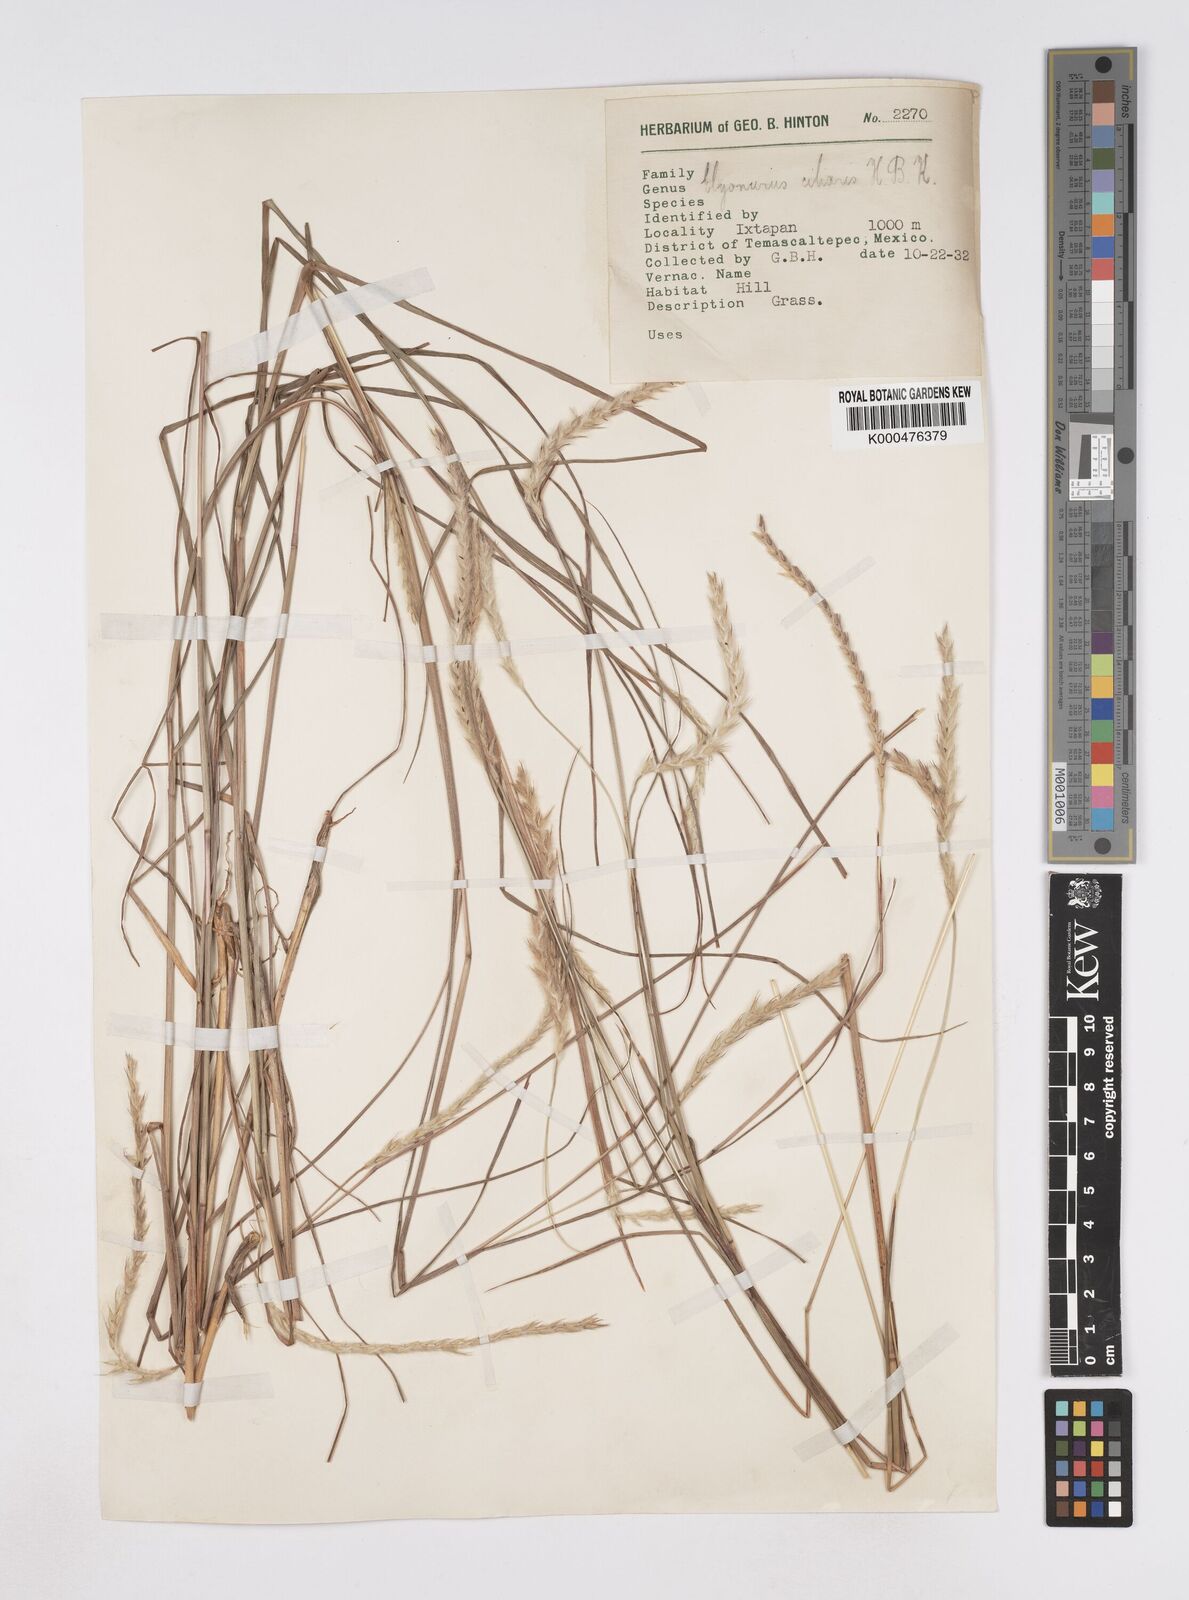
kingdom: Plantae
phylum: Tracheophyta
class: Liliopsida
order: Poales
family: Poaceae
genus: Elionurus
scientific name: Elionurus ciliaris
